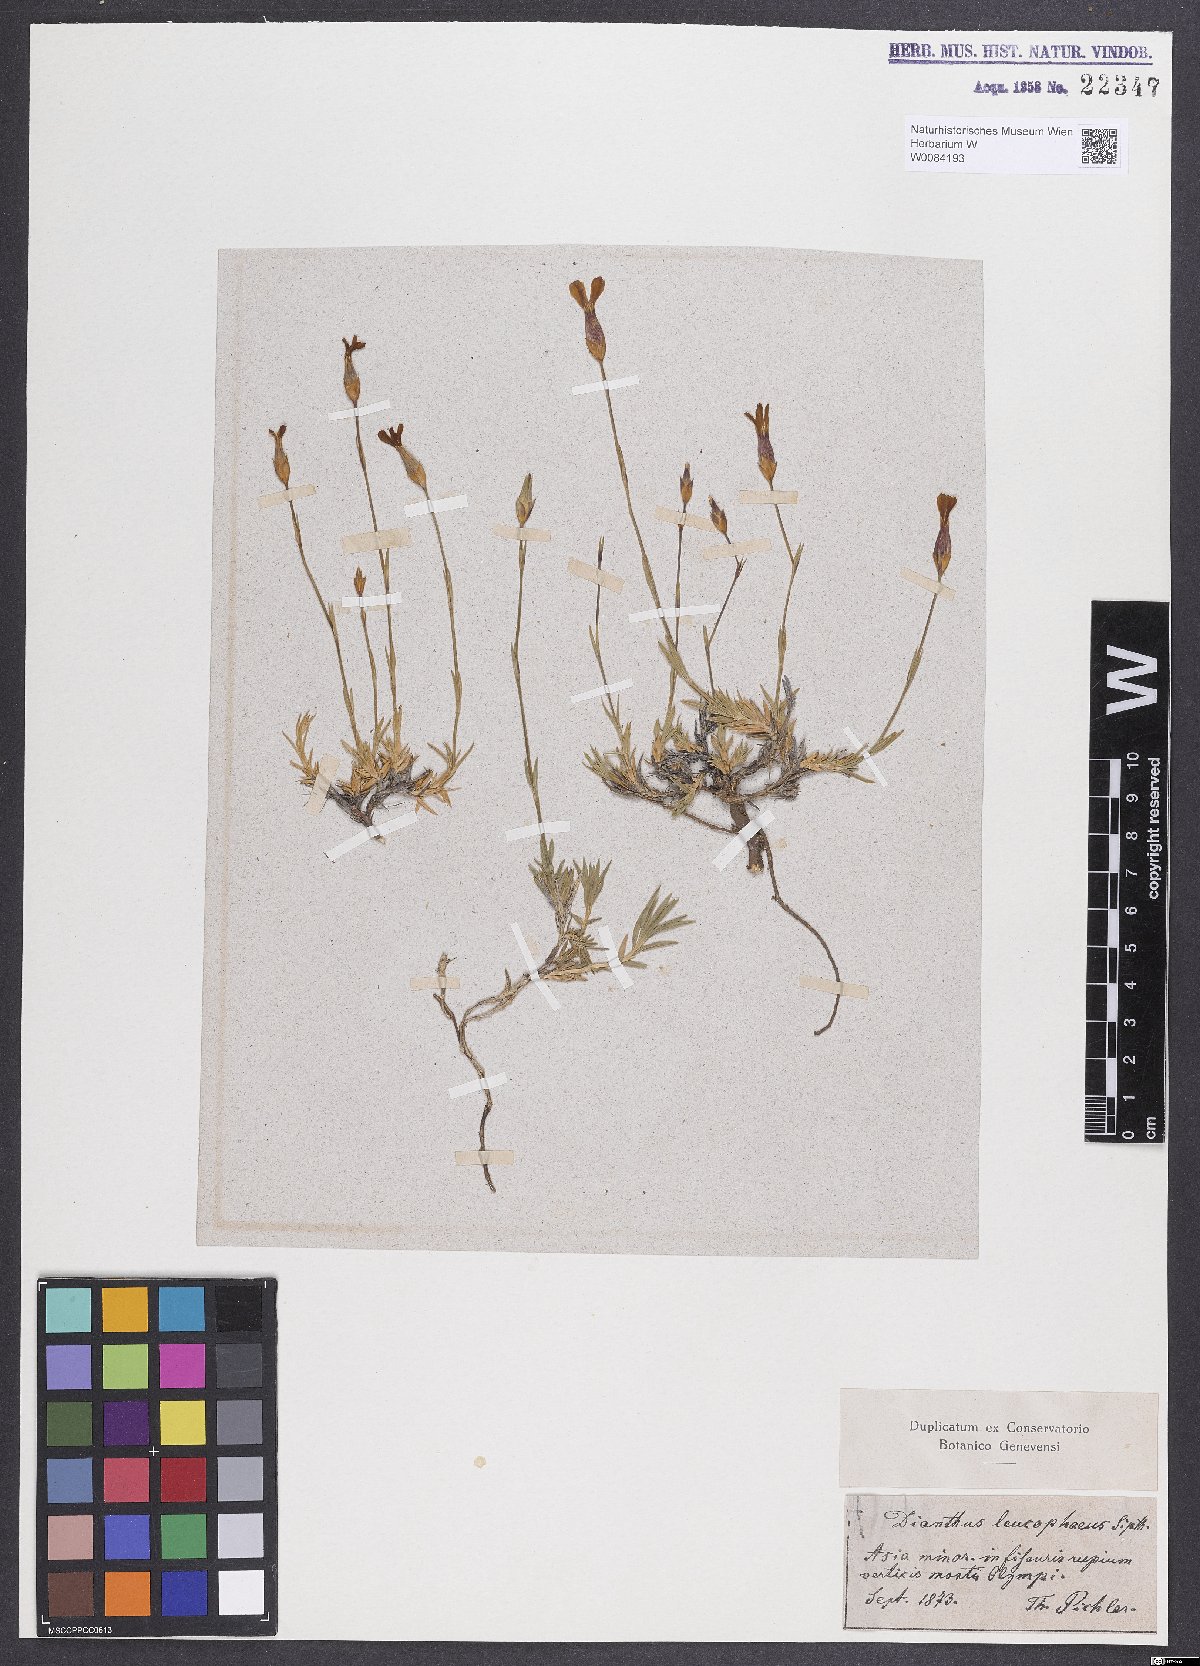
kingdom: Plantae
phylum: Tracheophyta
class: Magnoliopsida
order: Caryophyllales
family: Caryophyllaceae
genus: Dianthus
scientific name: Dianthus leucophaeus
